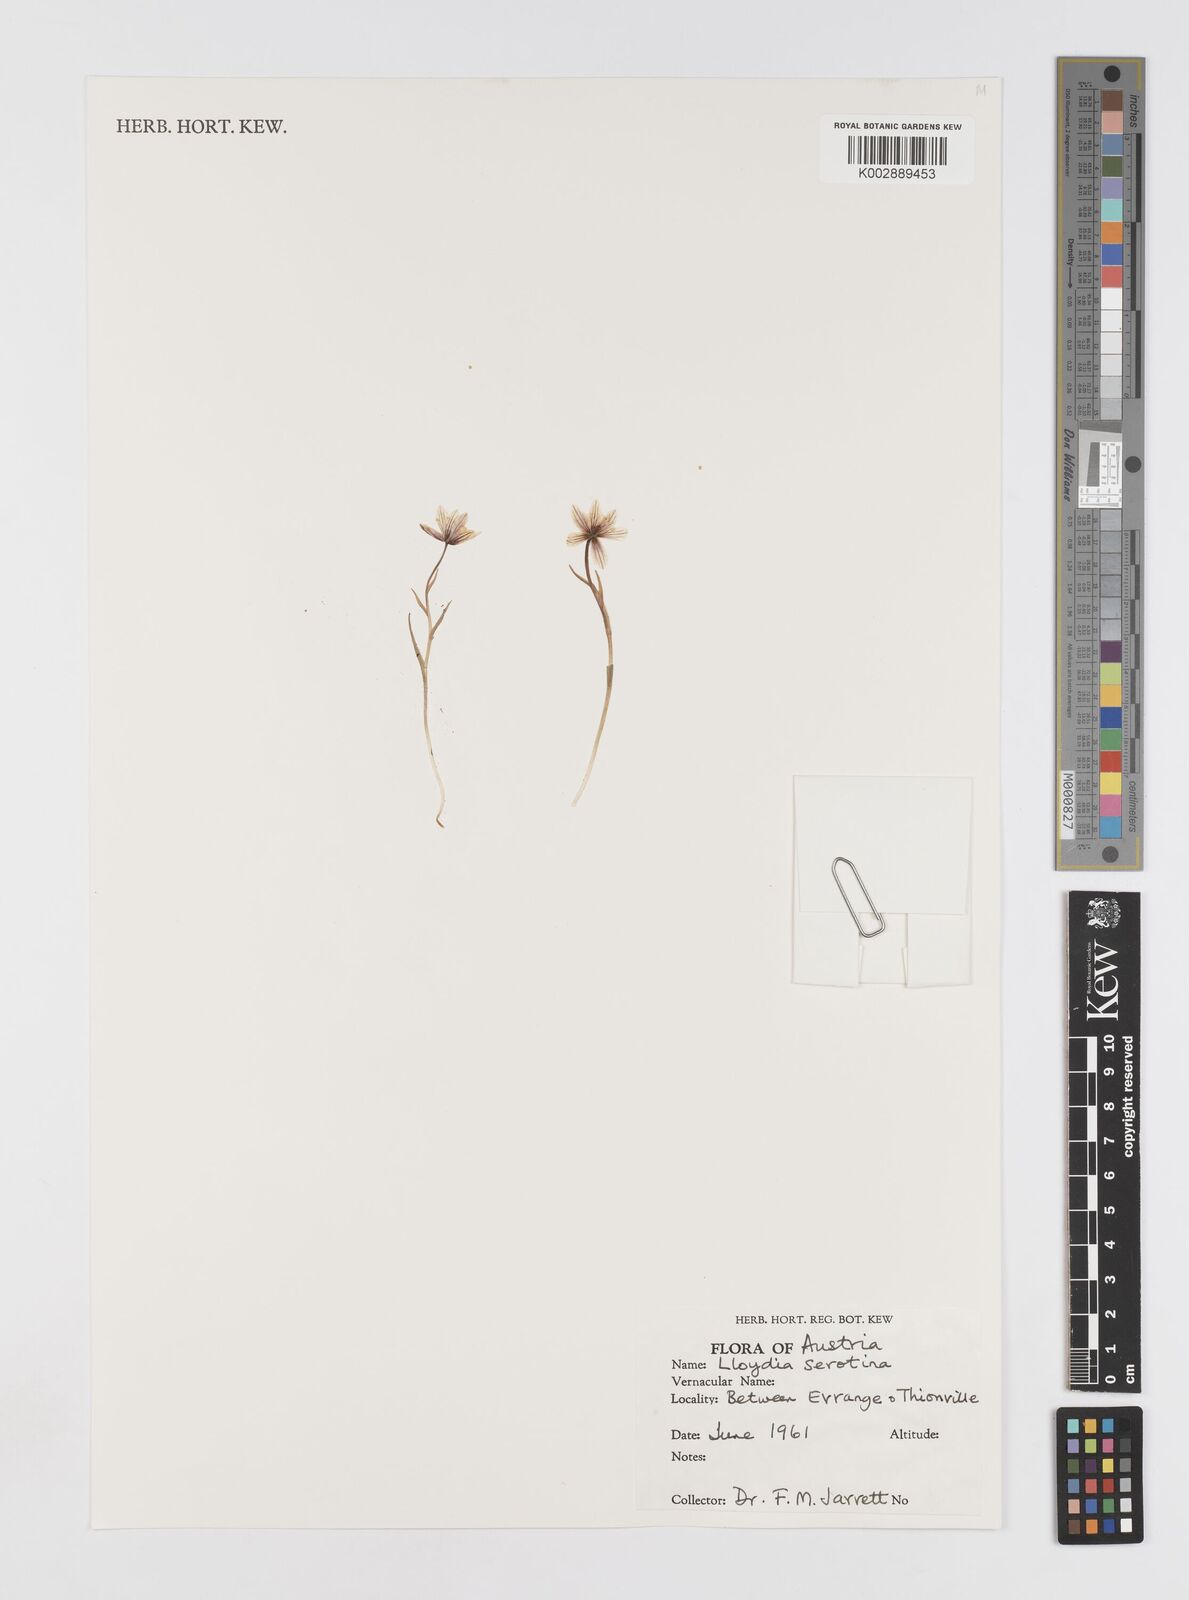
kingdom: Plantae
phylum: Tracheophyta
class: Liliopsida
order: Liliales
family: Liliaceae
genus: Gagea
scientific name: Gagea
